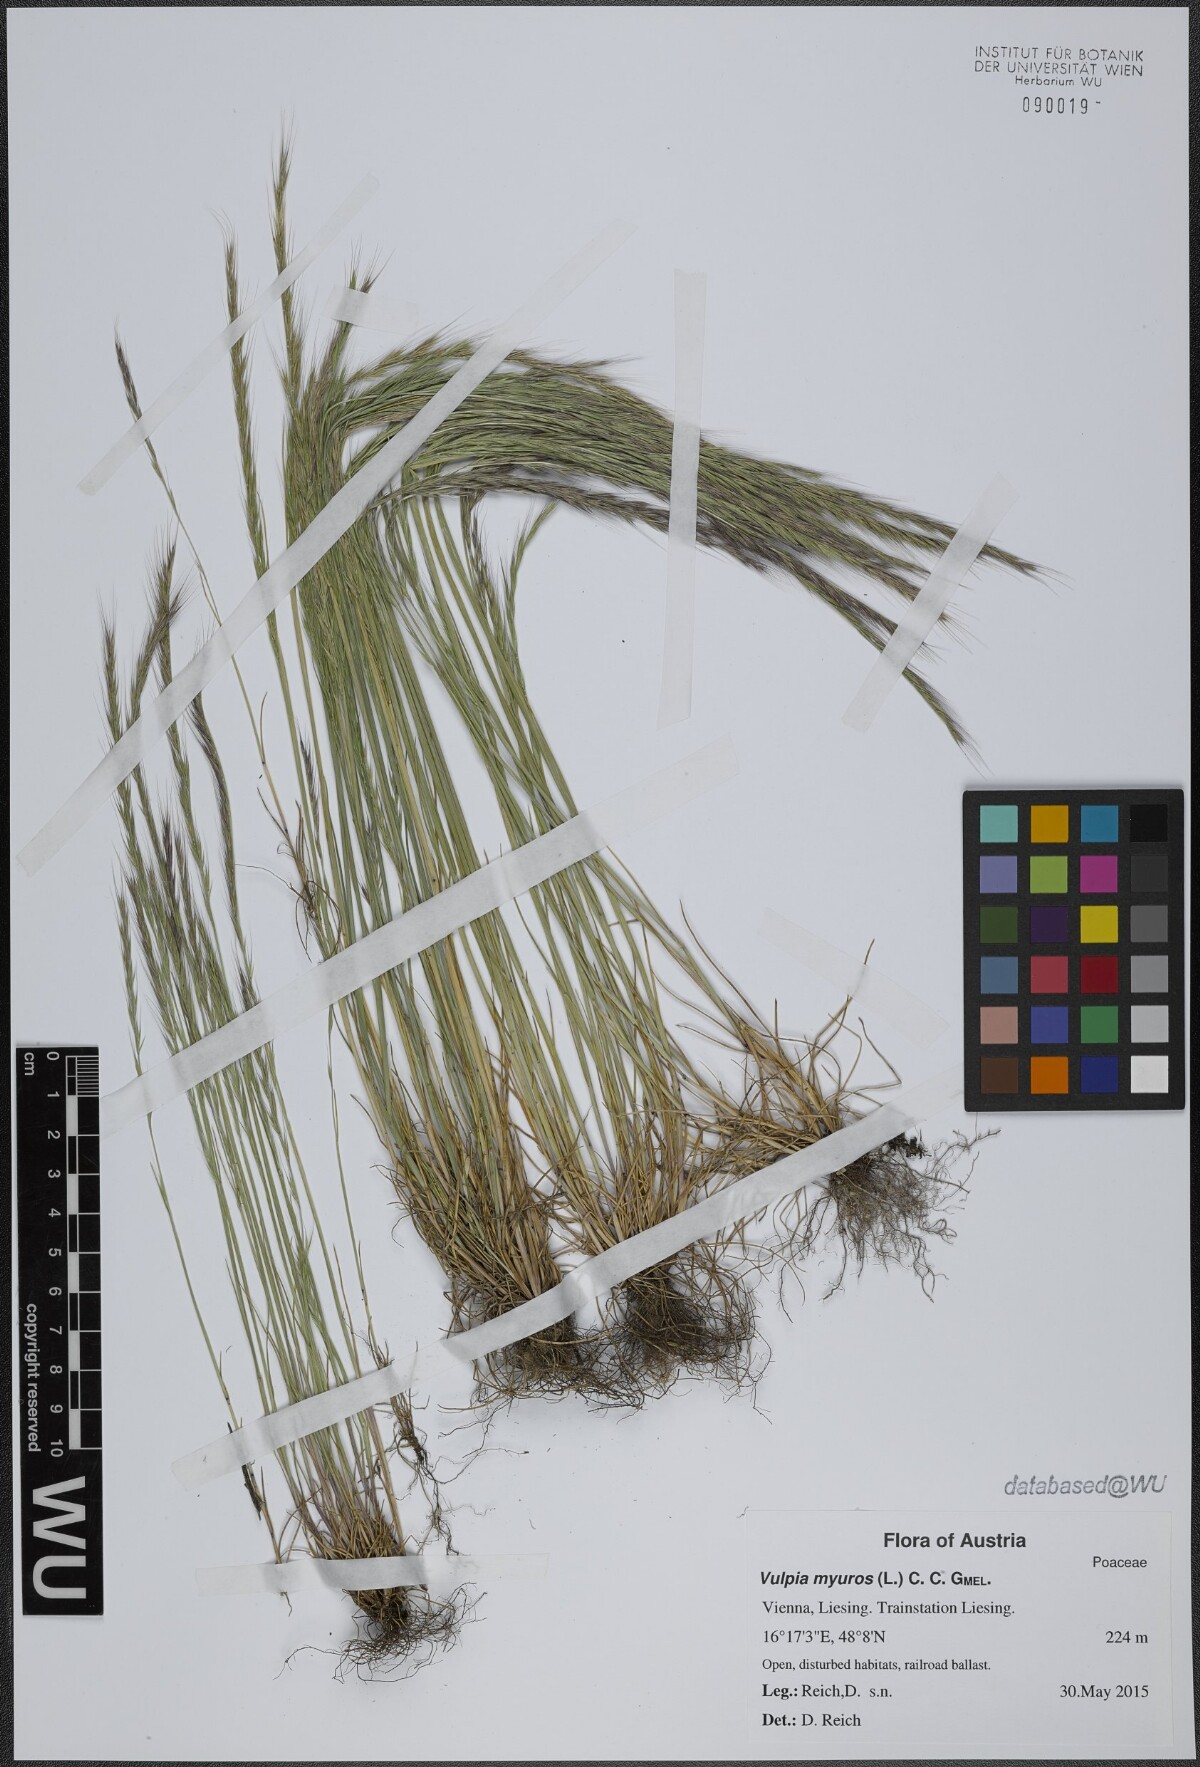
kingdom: Plantae
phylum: Tracheophyta
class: Liliopsida
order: Poales
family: Poaceae
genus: Festuca
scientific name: Festuca myuros
